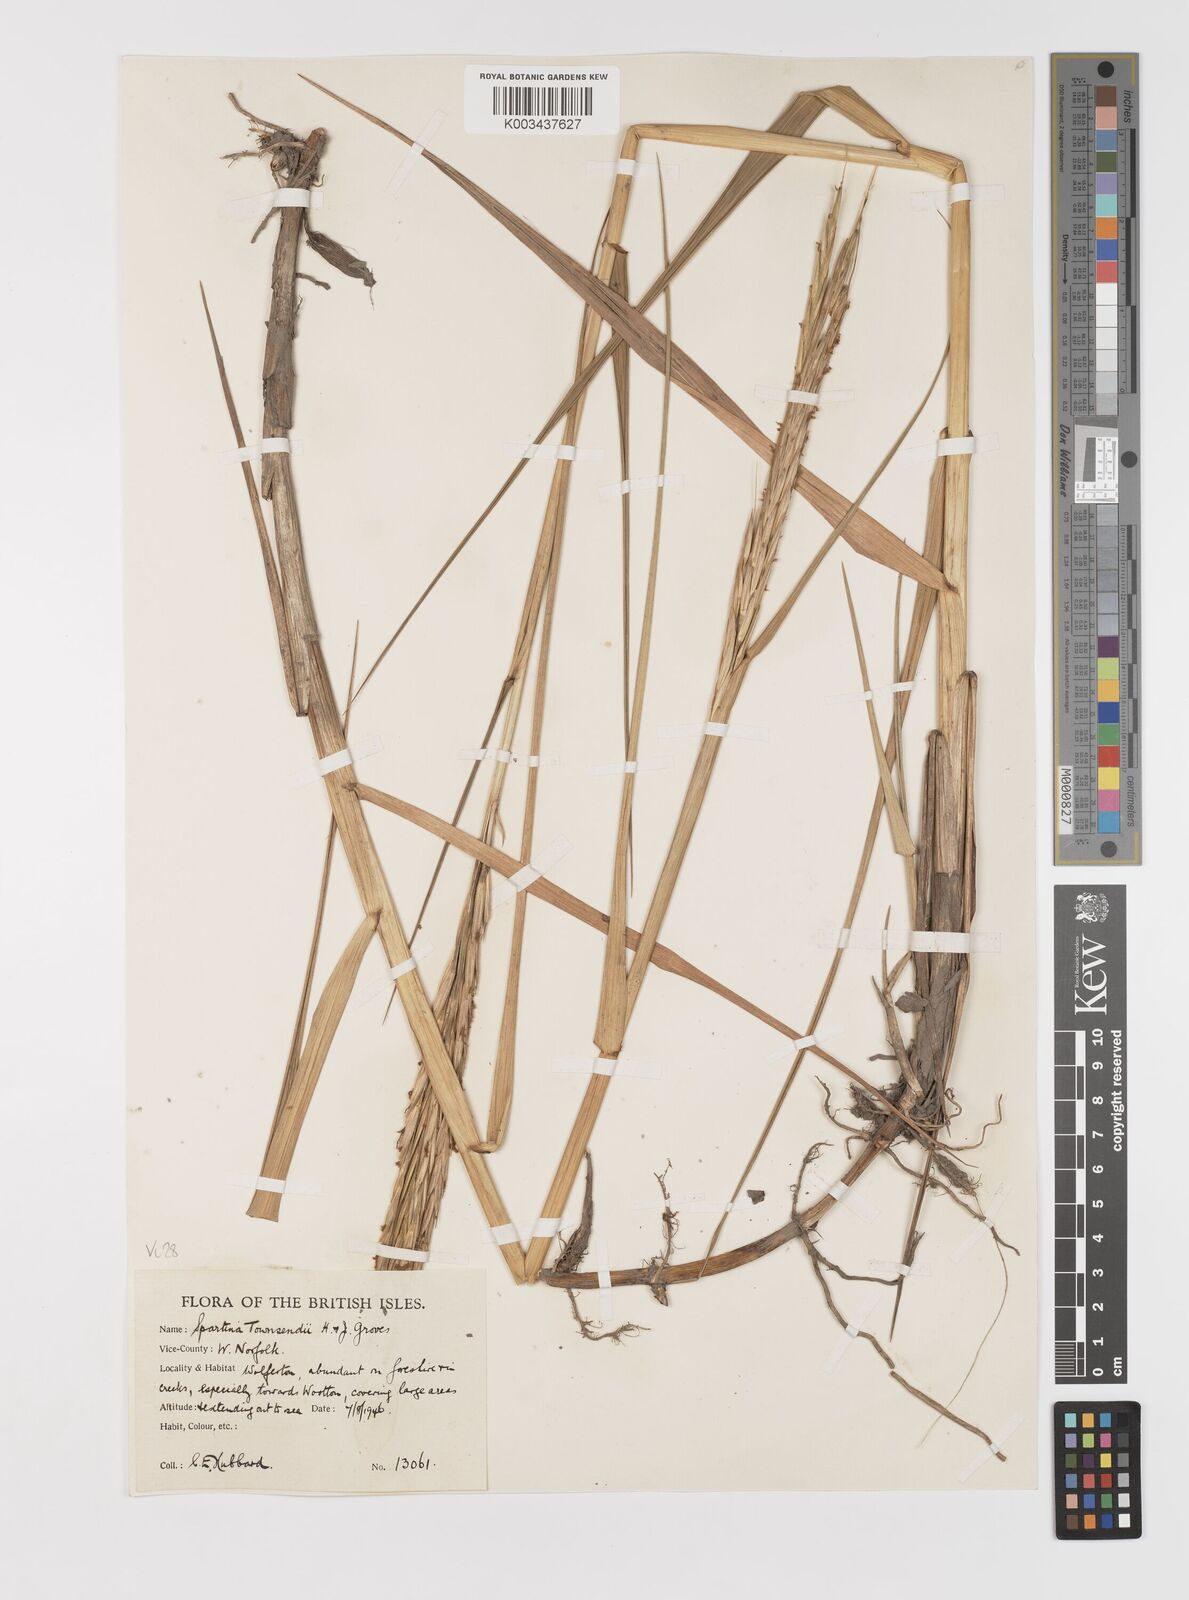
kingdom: Plantae
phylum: Tracheophyta
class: Liliopsida
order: Poales
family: Poaceae
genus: Sporobolus
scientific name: Sporobolus anglicus
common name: English cordgrass
